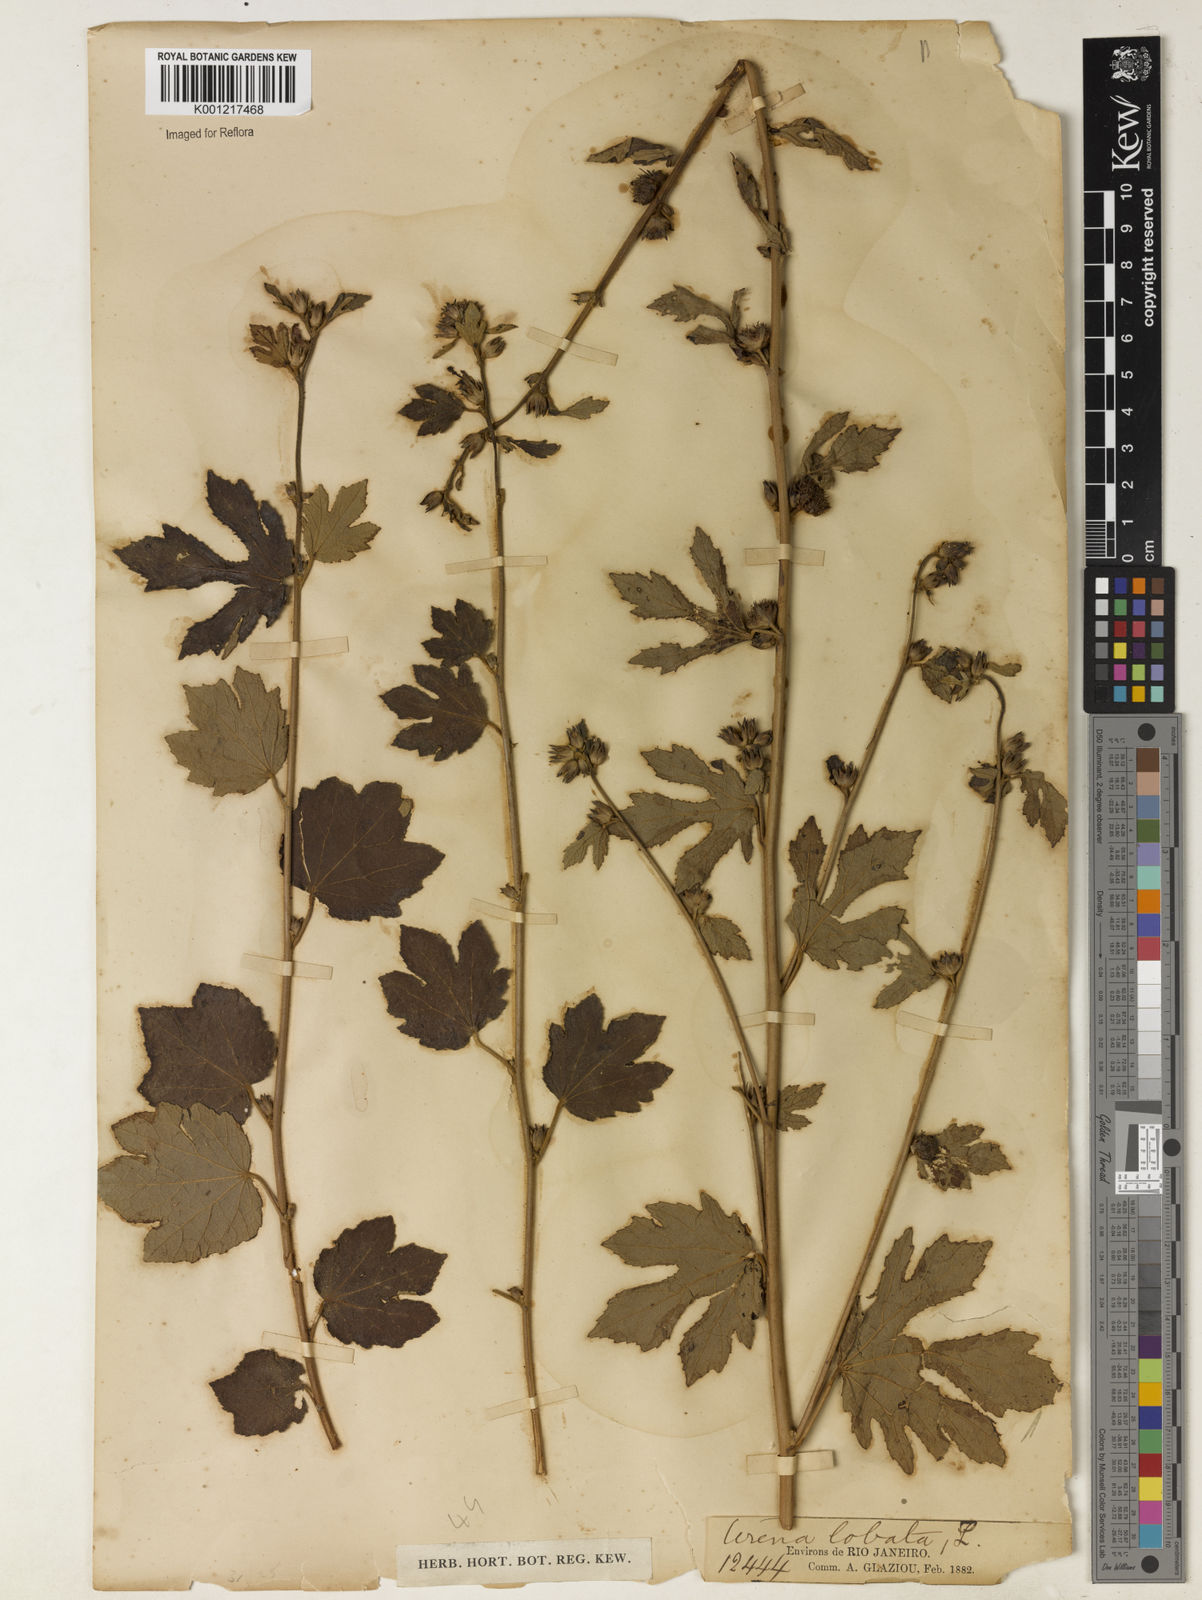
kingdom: Plantae
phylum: Tracheophyta
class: Magnoliopsida
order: Malvales
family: Malvaceae
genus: Urena
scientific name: Urena lobata
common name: Caesarweed
